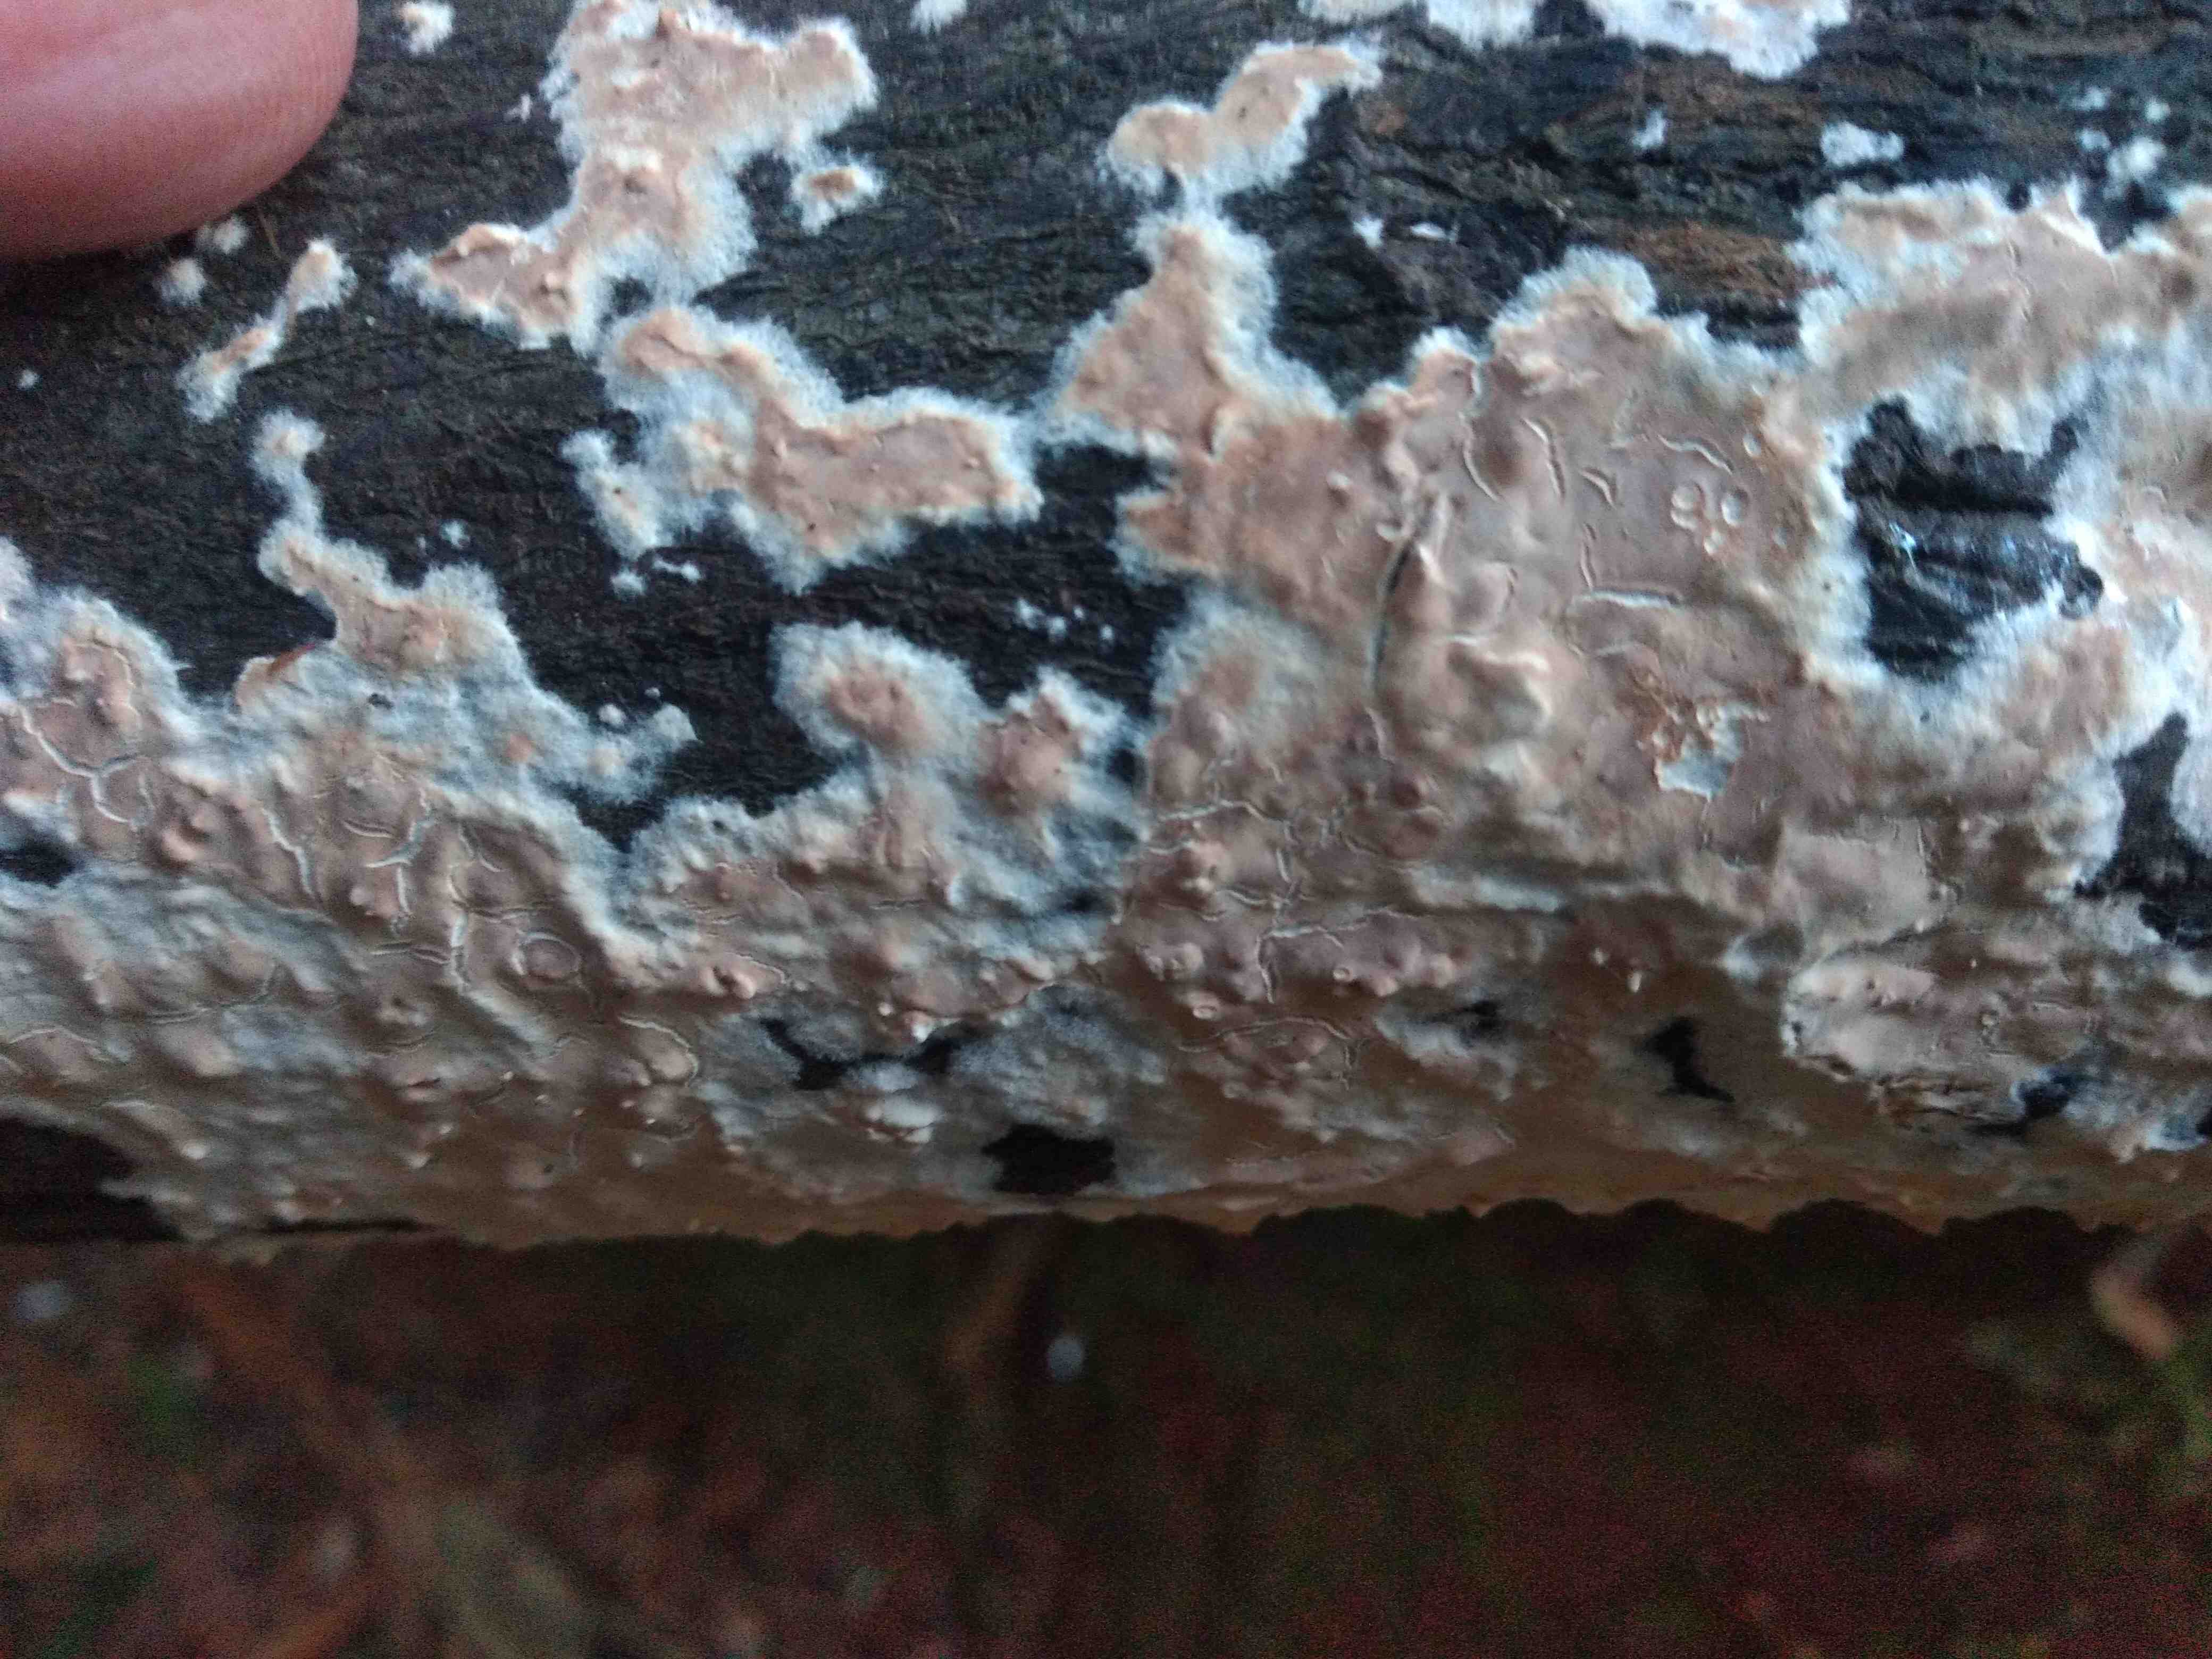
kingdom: Fungi
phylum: Basidiomycota
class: Agaricomycetes
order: Agaricales
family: Physalacriaceae
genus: Cylindrobasidium
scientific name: Cylindrobasidium evolvens
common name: sprækkehinde
